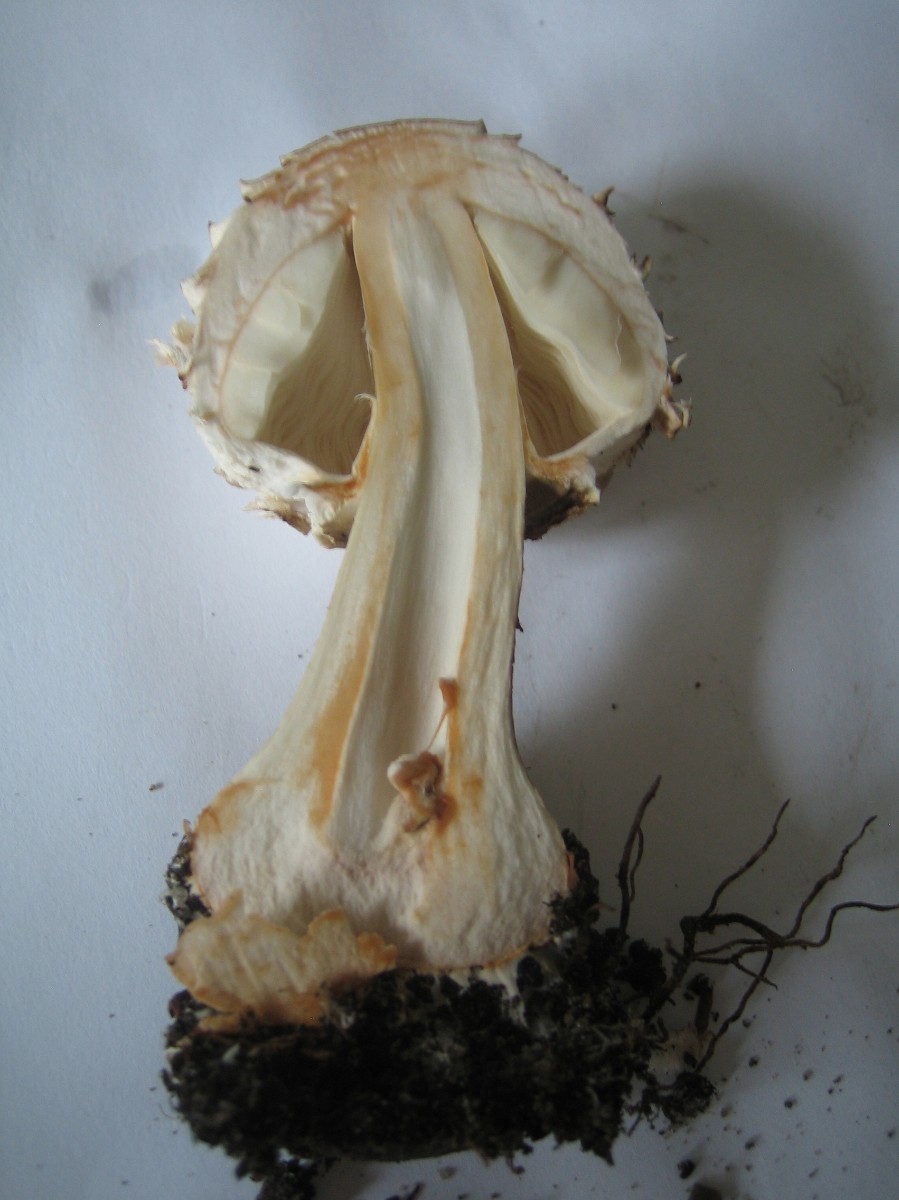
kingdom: Fungi
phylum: Basidiomycota
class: Agaricomycetes
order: Agaricales
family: Agaricaceae
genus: Chlorophyllum
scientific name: Chlorophyllum rhacodes
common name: ægte rabarberhat
